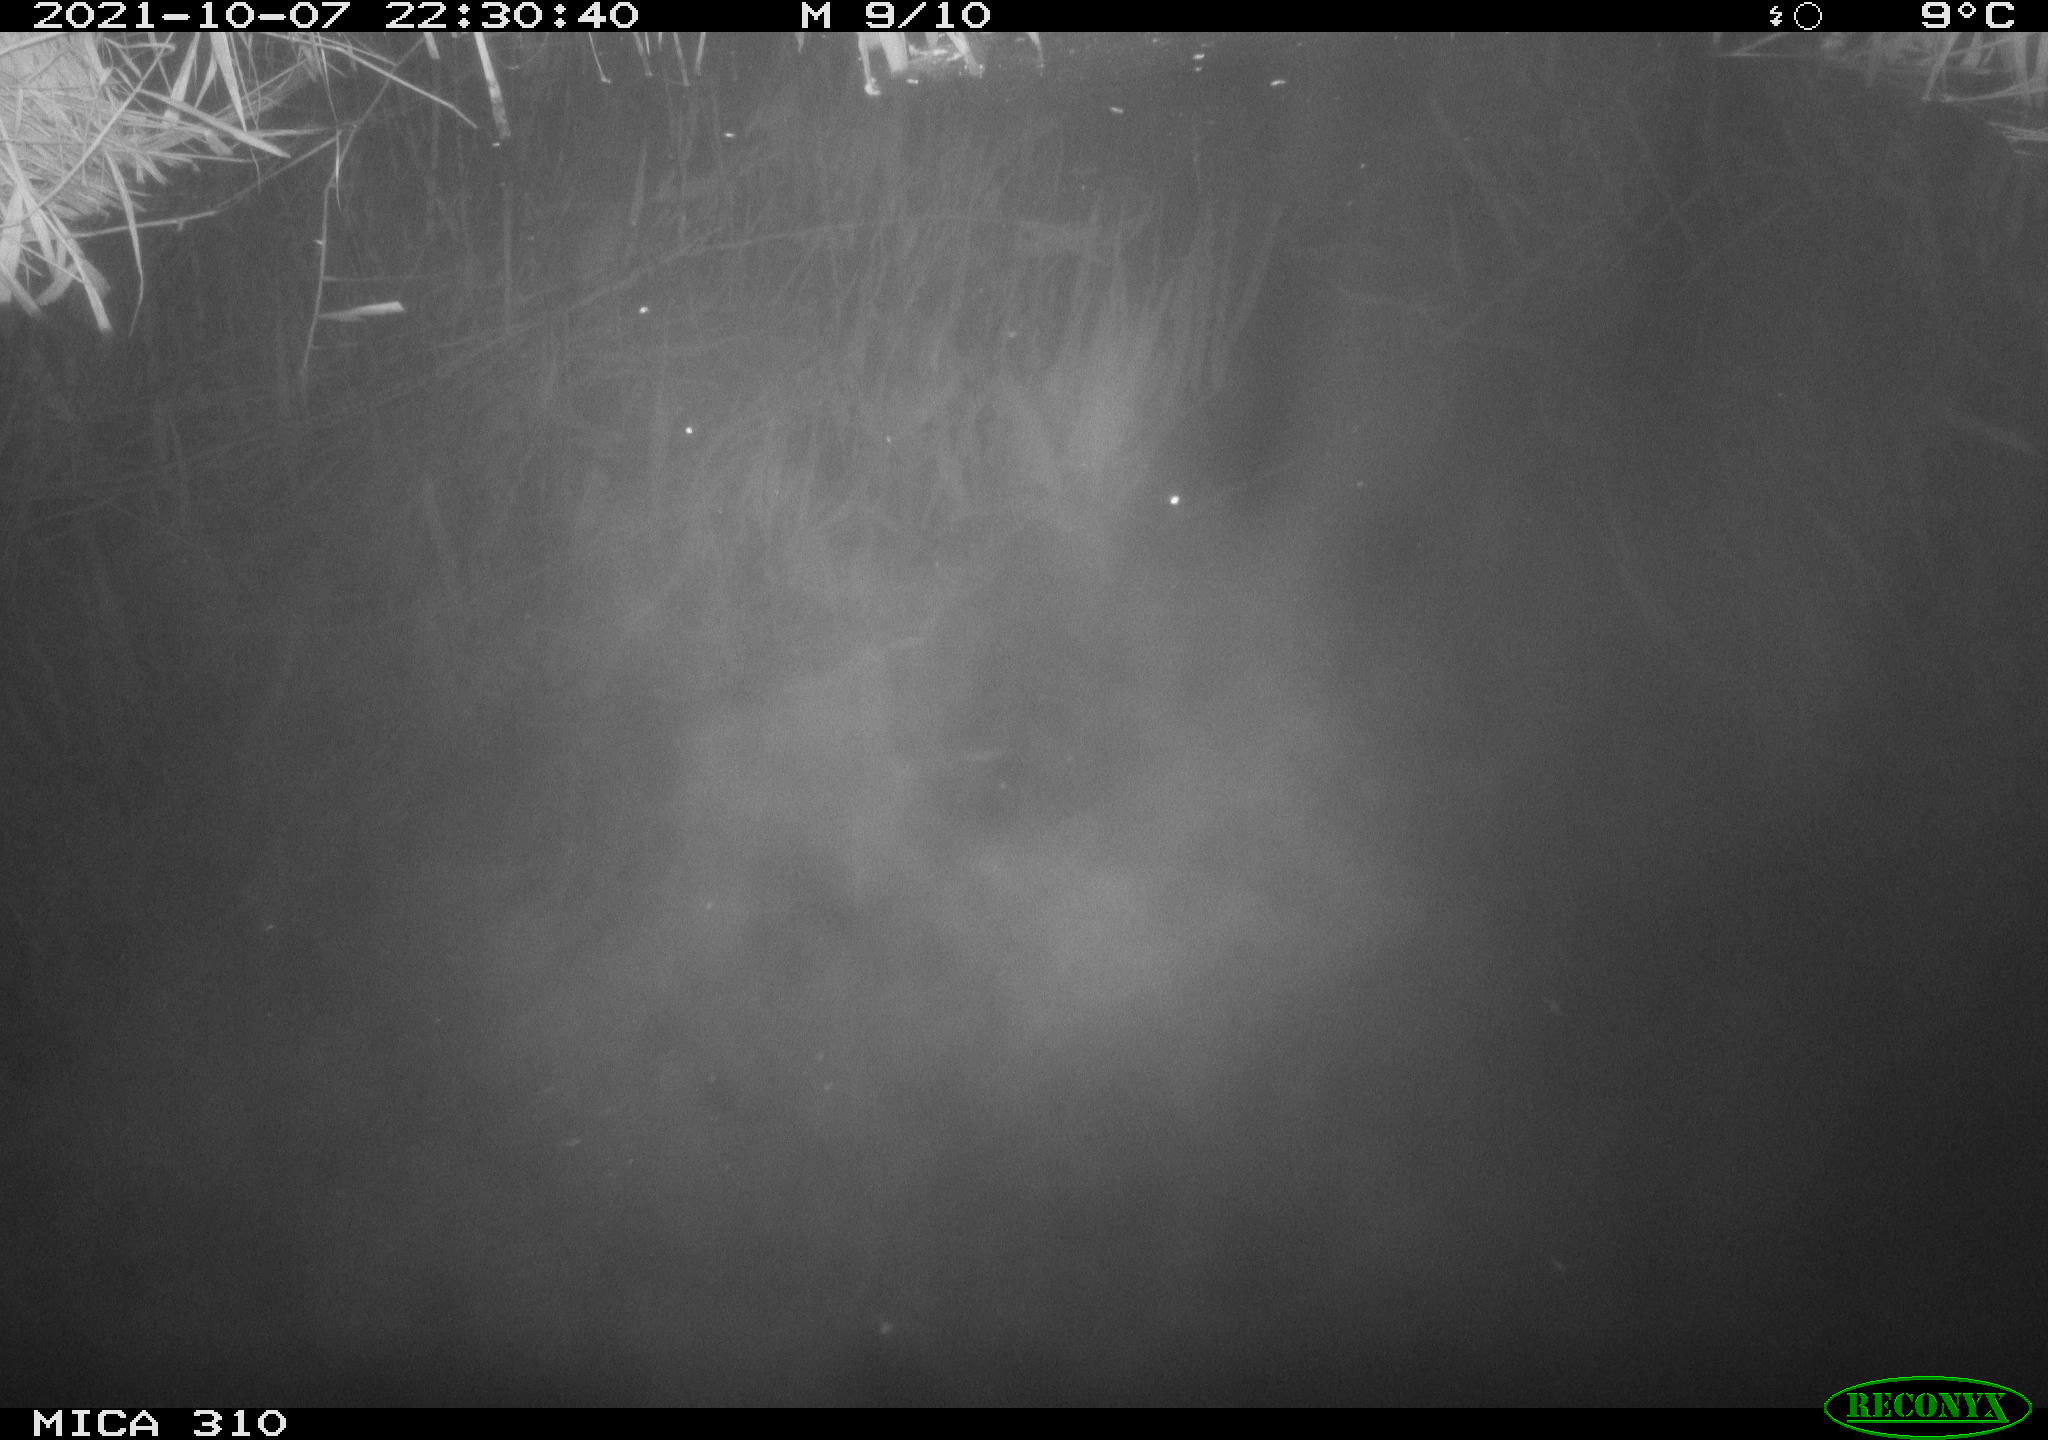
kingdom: Animalia
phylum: Chordata
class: Mammalia
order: Rodentia
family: Muridae
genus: Rattus
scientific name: Rattus norvegicus
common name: Brown rat
